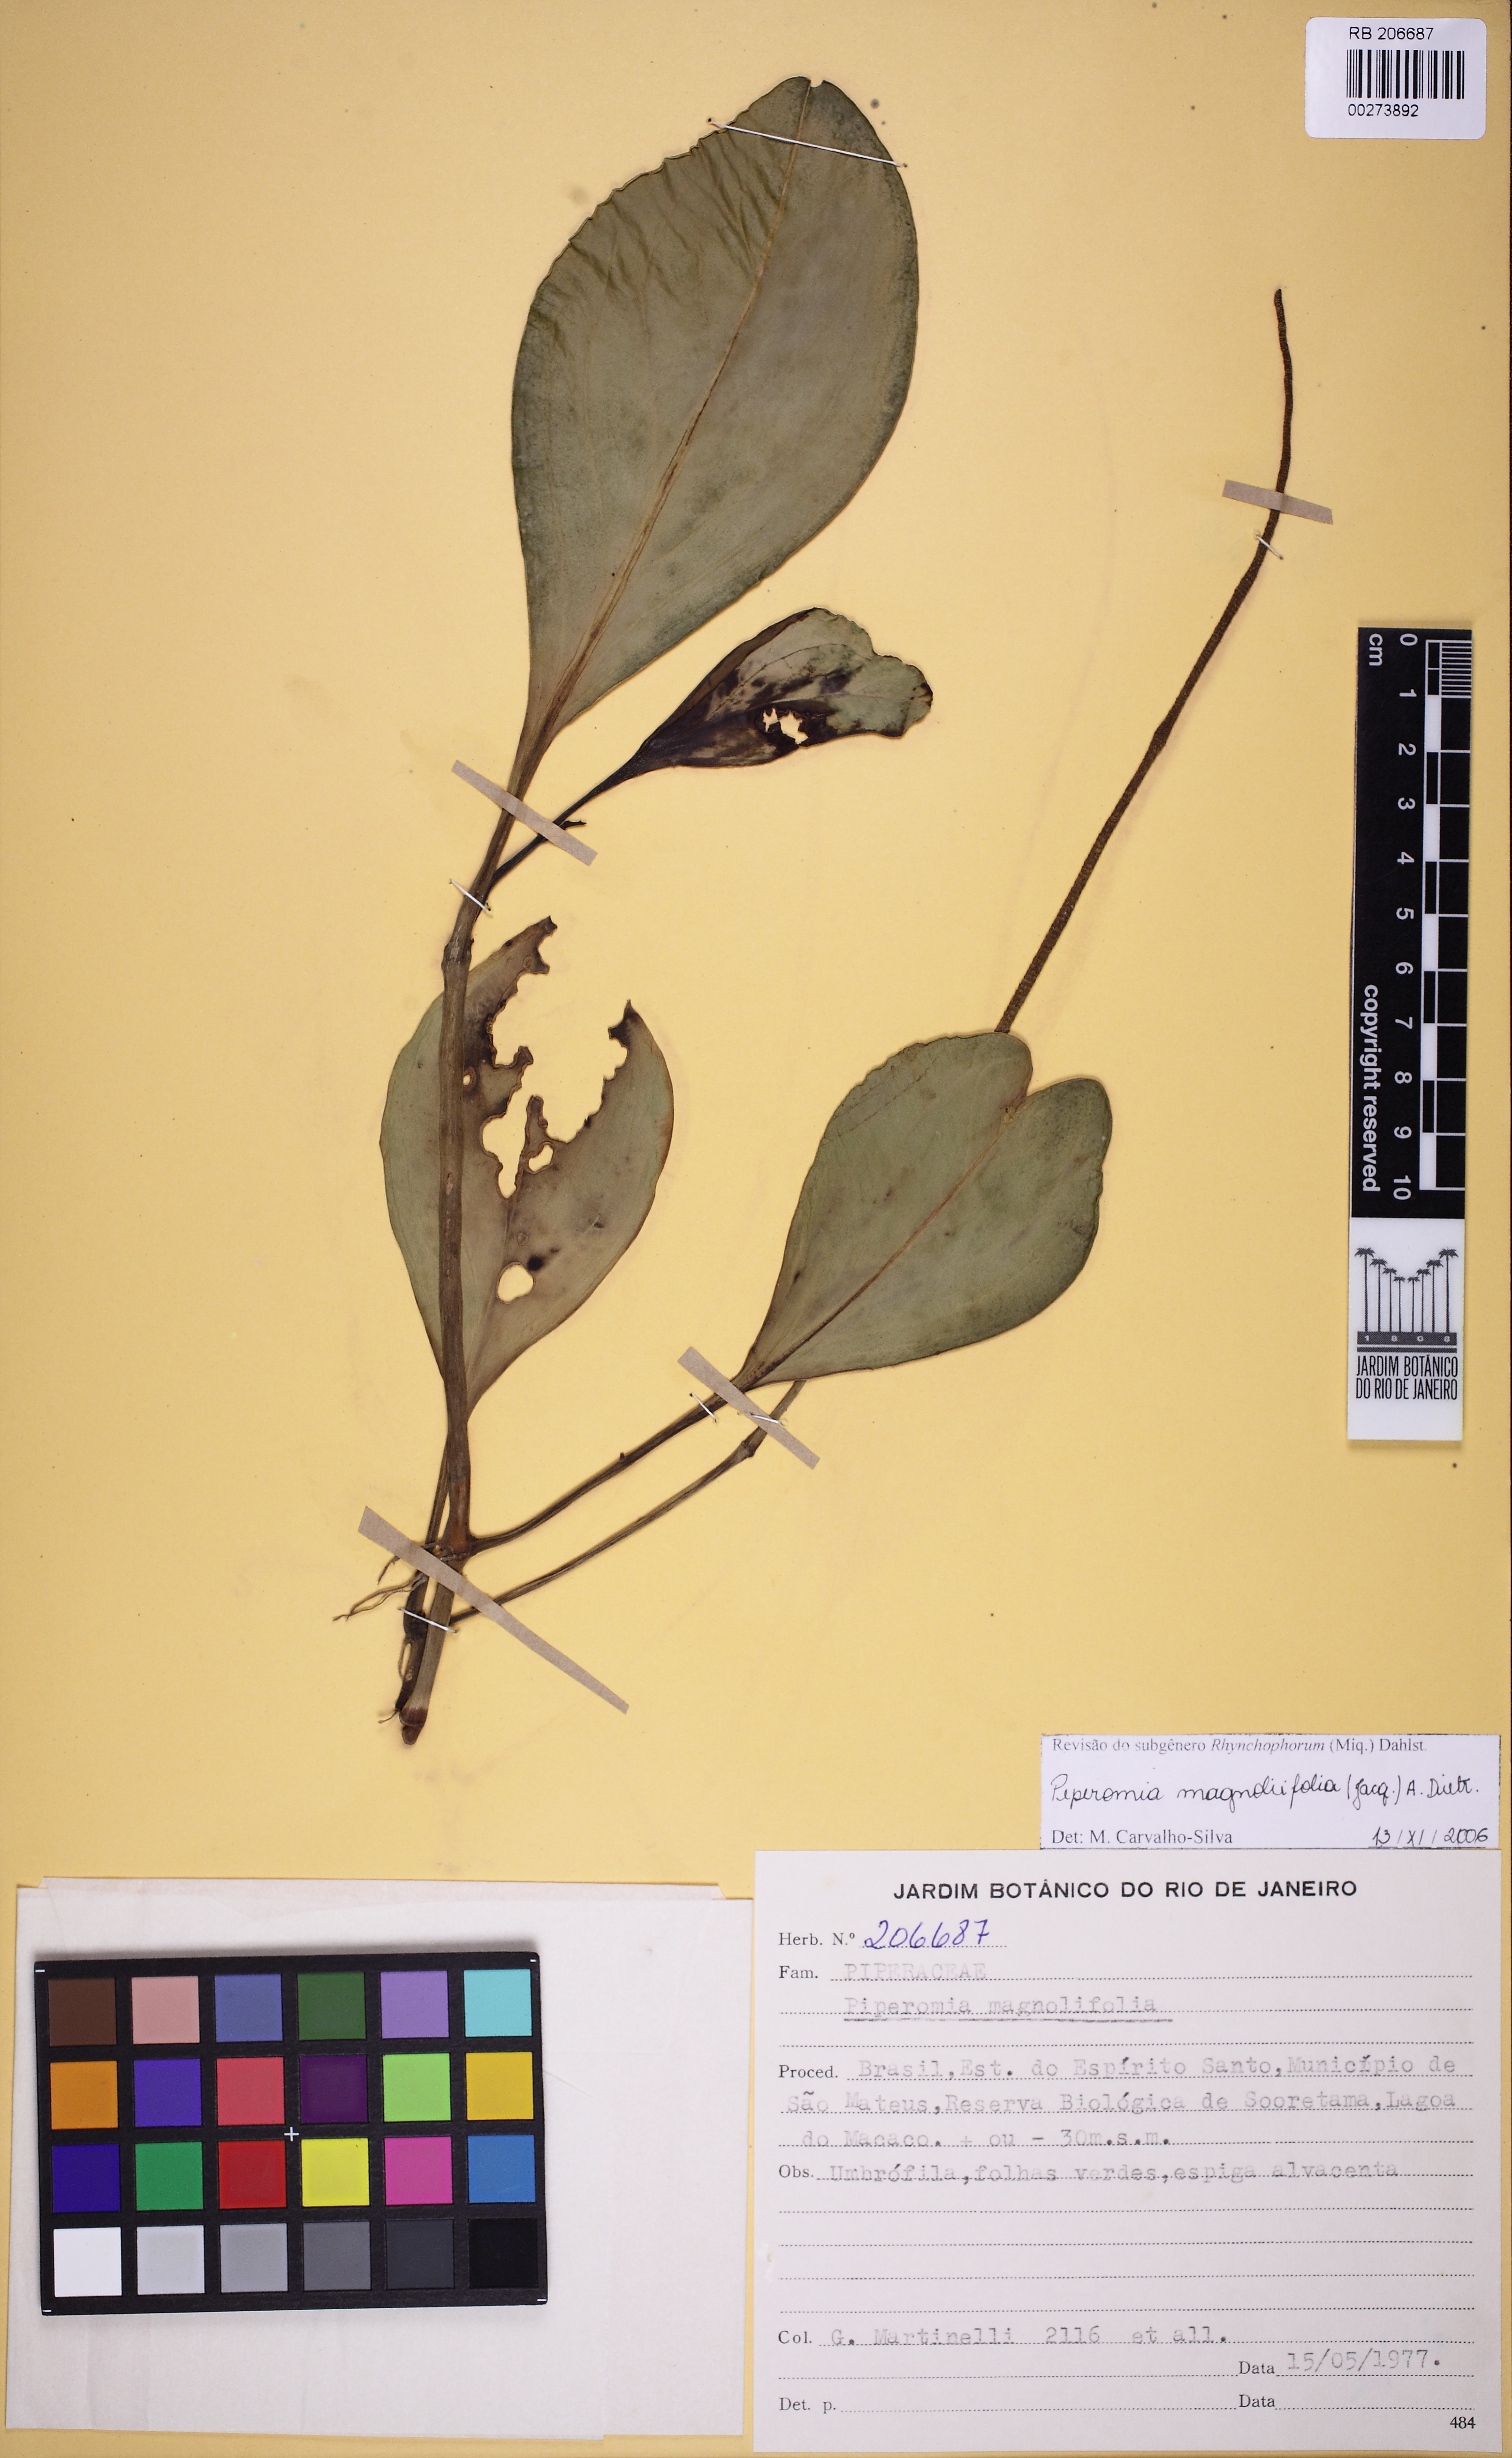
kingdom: Plantae
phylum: Tracheophyta
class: Magnoliopsida
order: Piperales
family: Piperaceae
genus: Peperomia
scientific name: Peperomia magnoliifolia
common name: Spoonleaf peperomia
